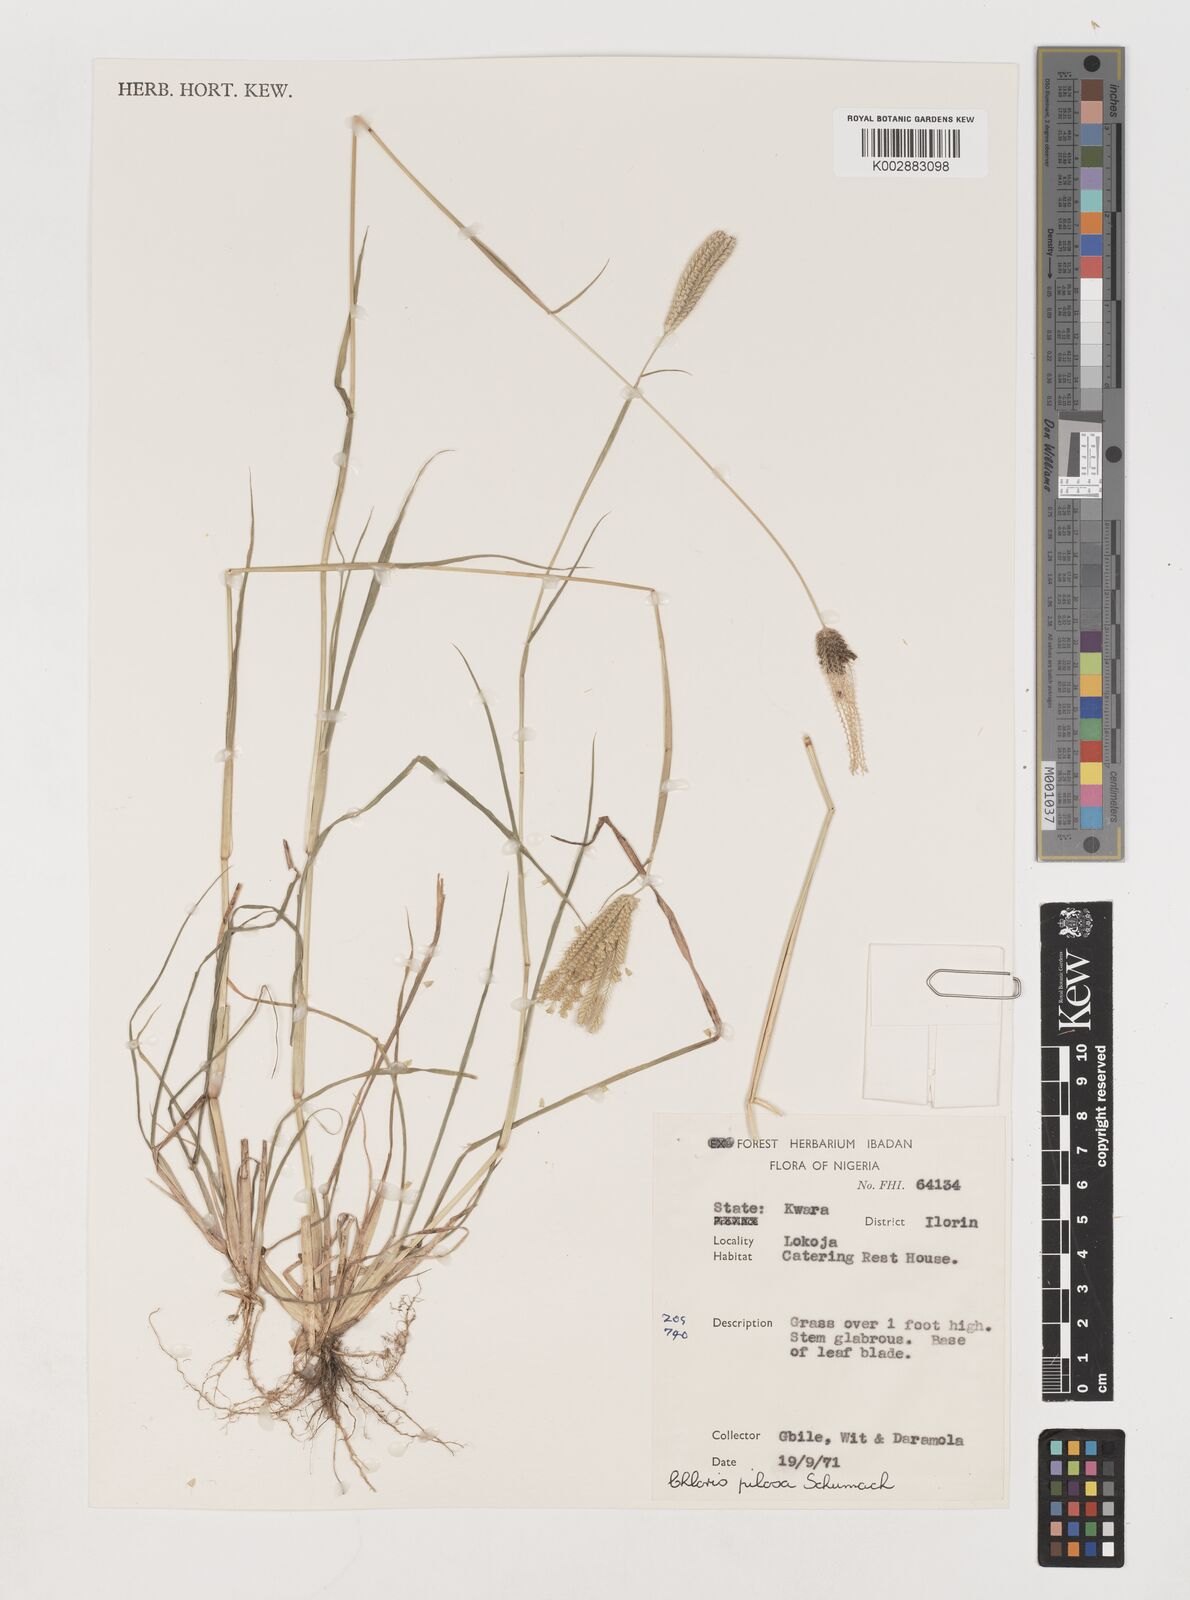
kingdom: Plantae
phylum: Tracheophyta
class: Liliopsida
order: Poales
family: Poaceae
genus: Chloris
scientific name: Chloris pilosa
